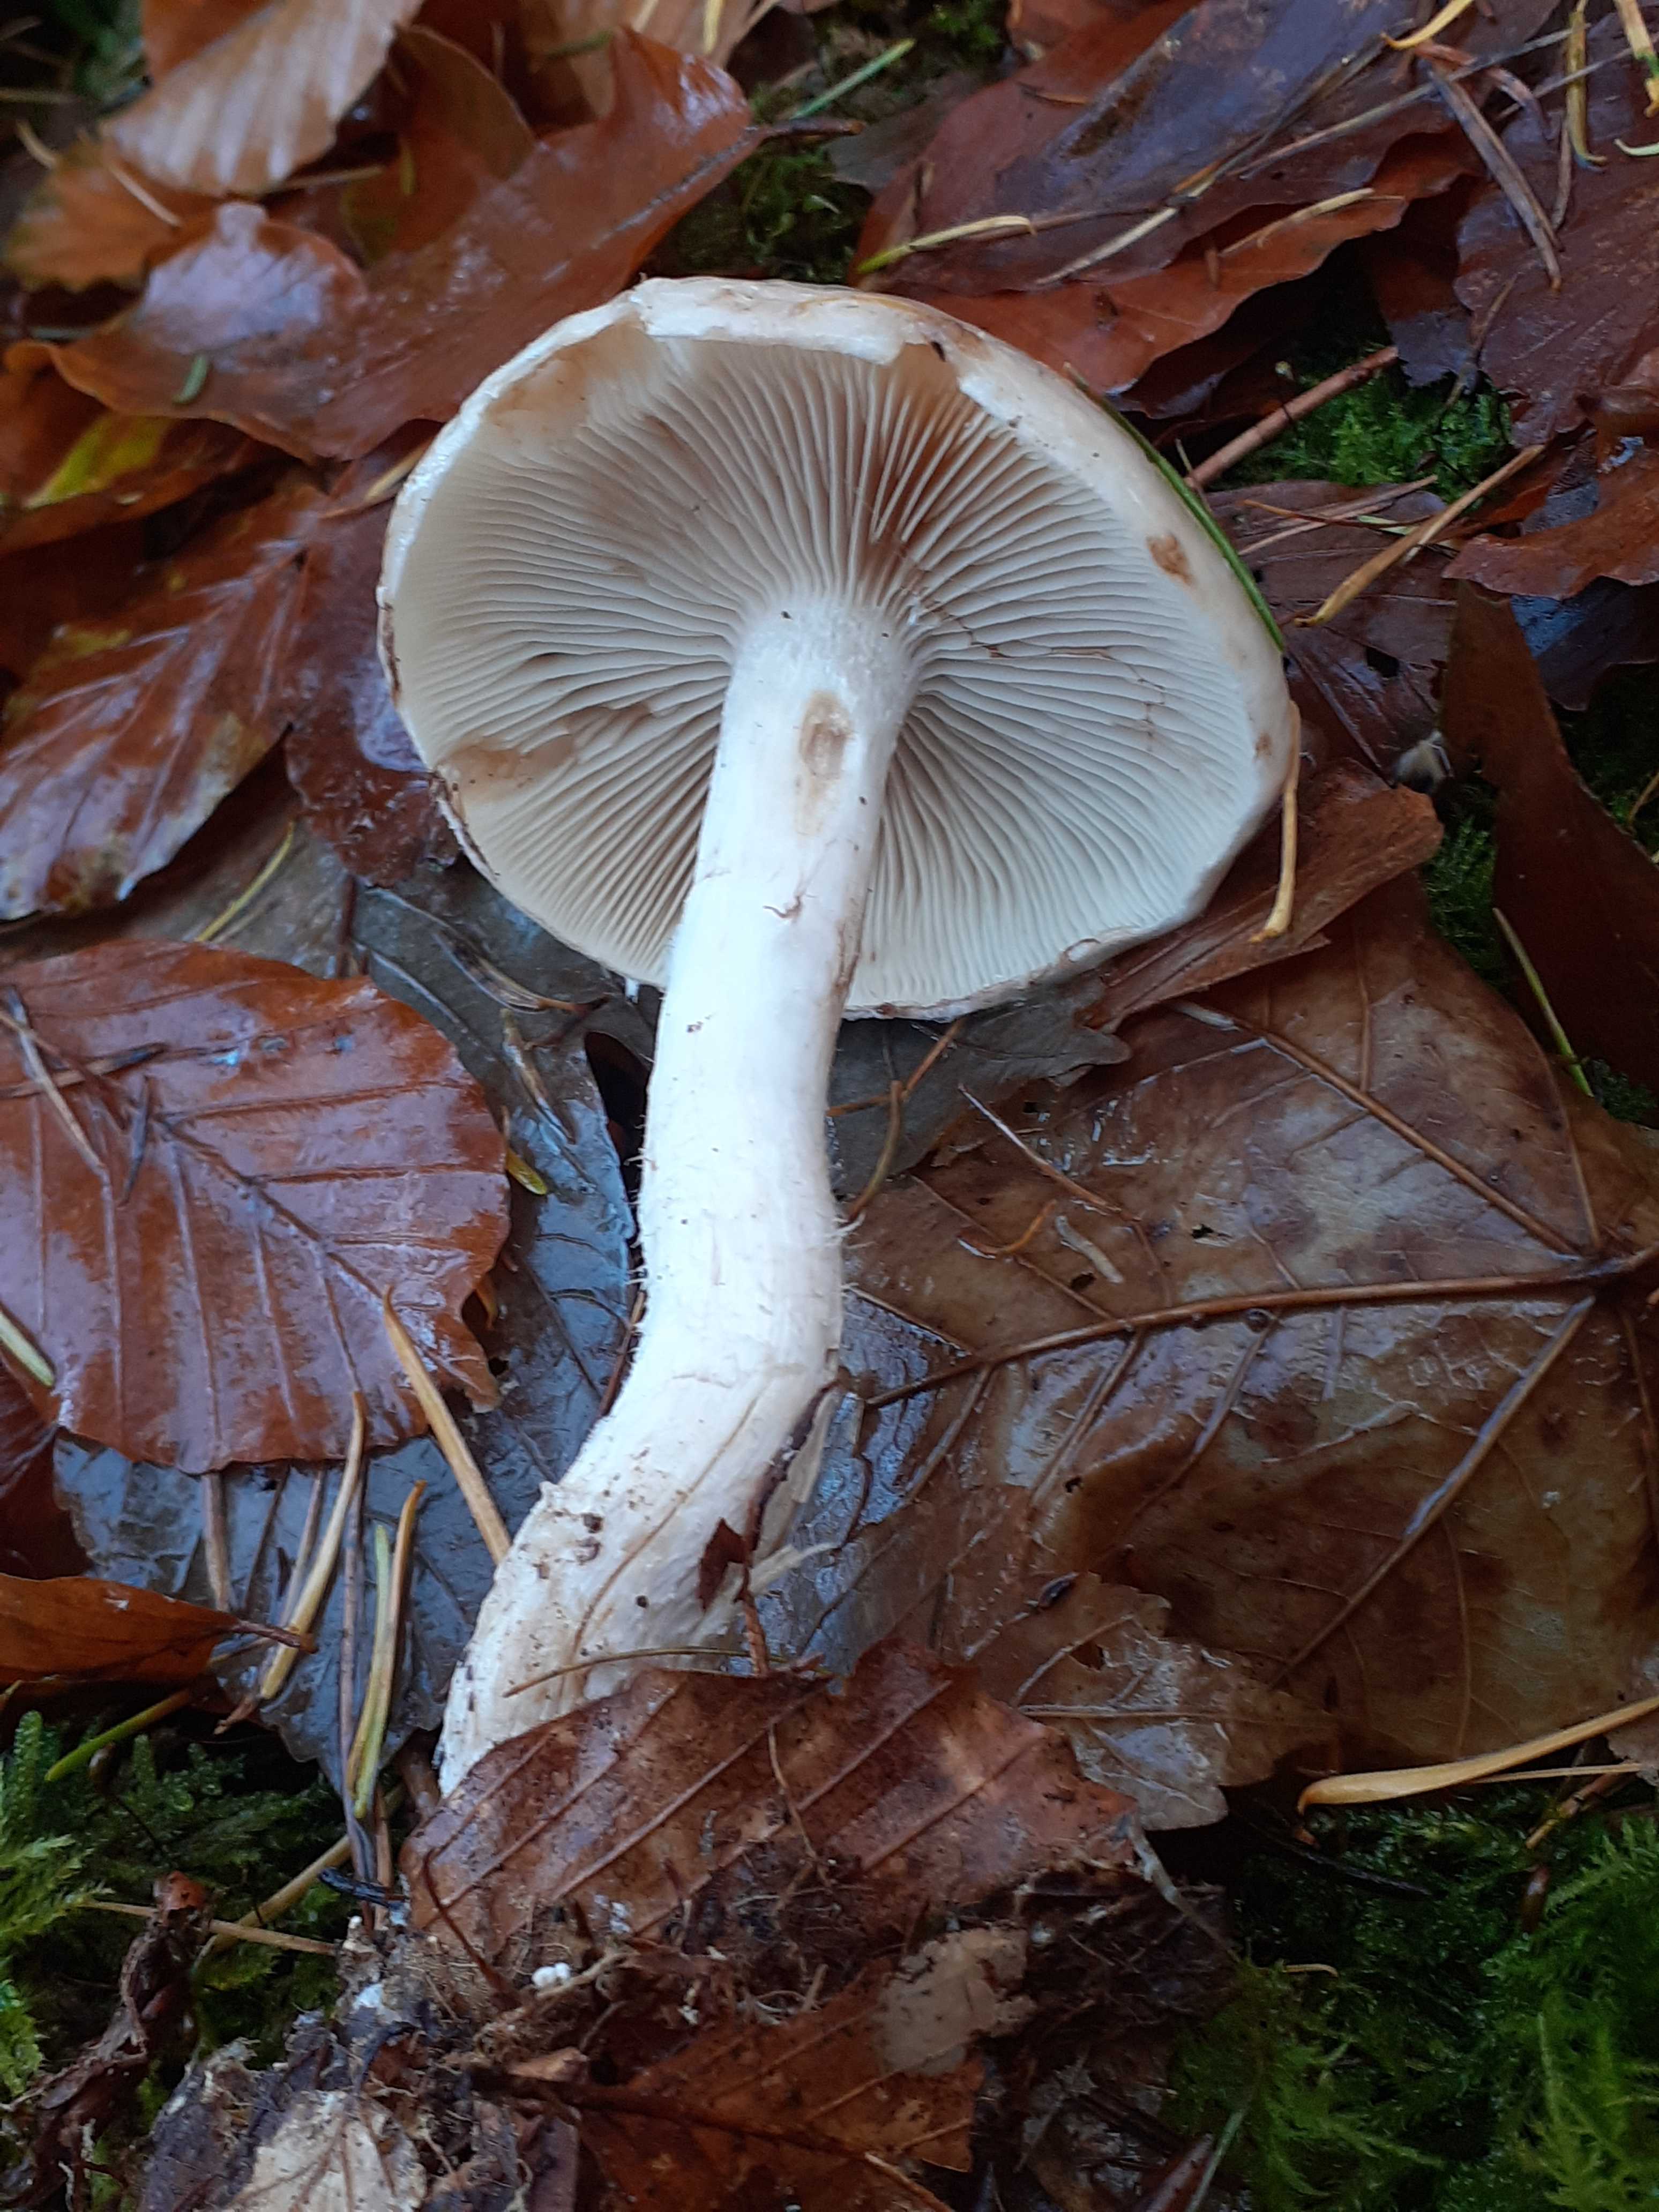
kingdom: Fungi
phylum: Basidiomycota
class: Agaricomycetes
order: Agaricales
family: Strophariaceae
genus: Pholiota
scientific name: Pholiota lenta
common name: løv-skælhat
